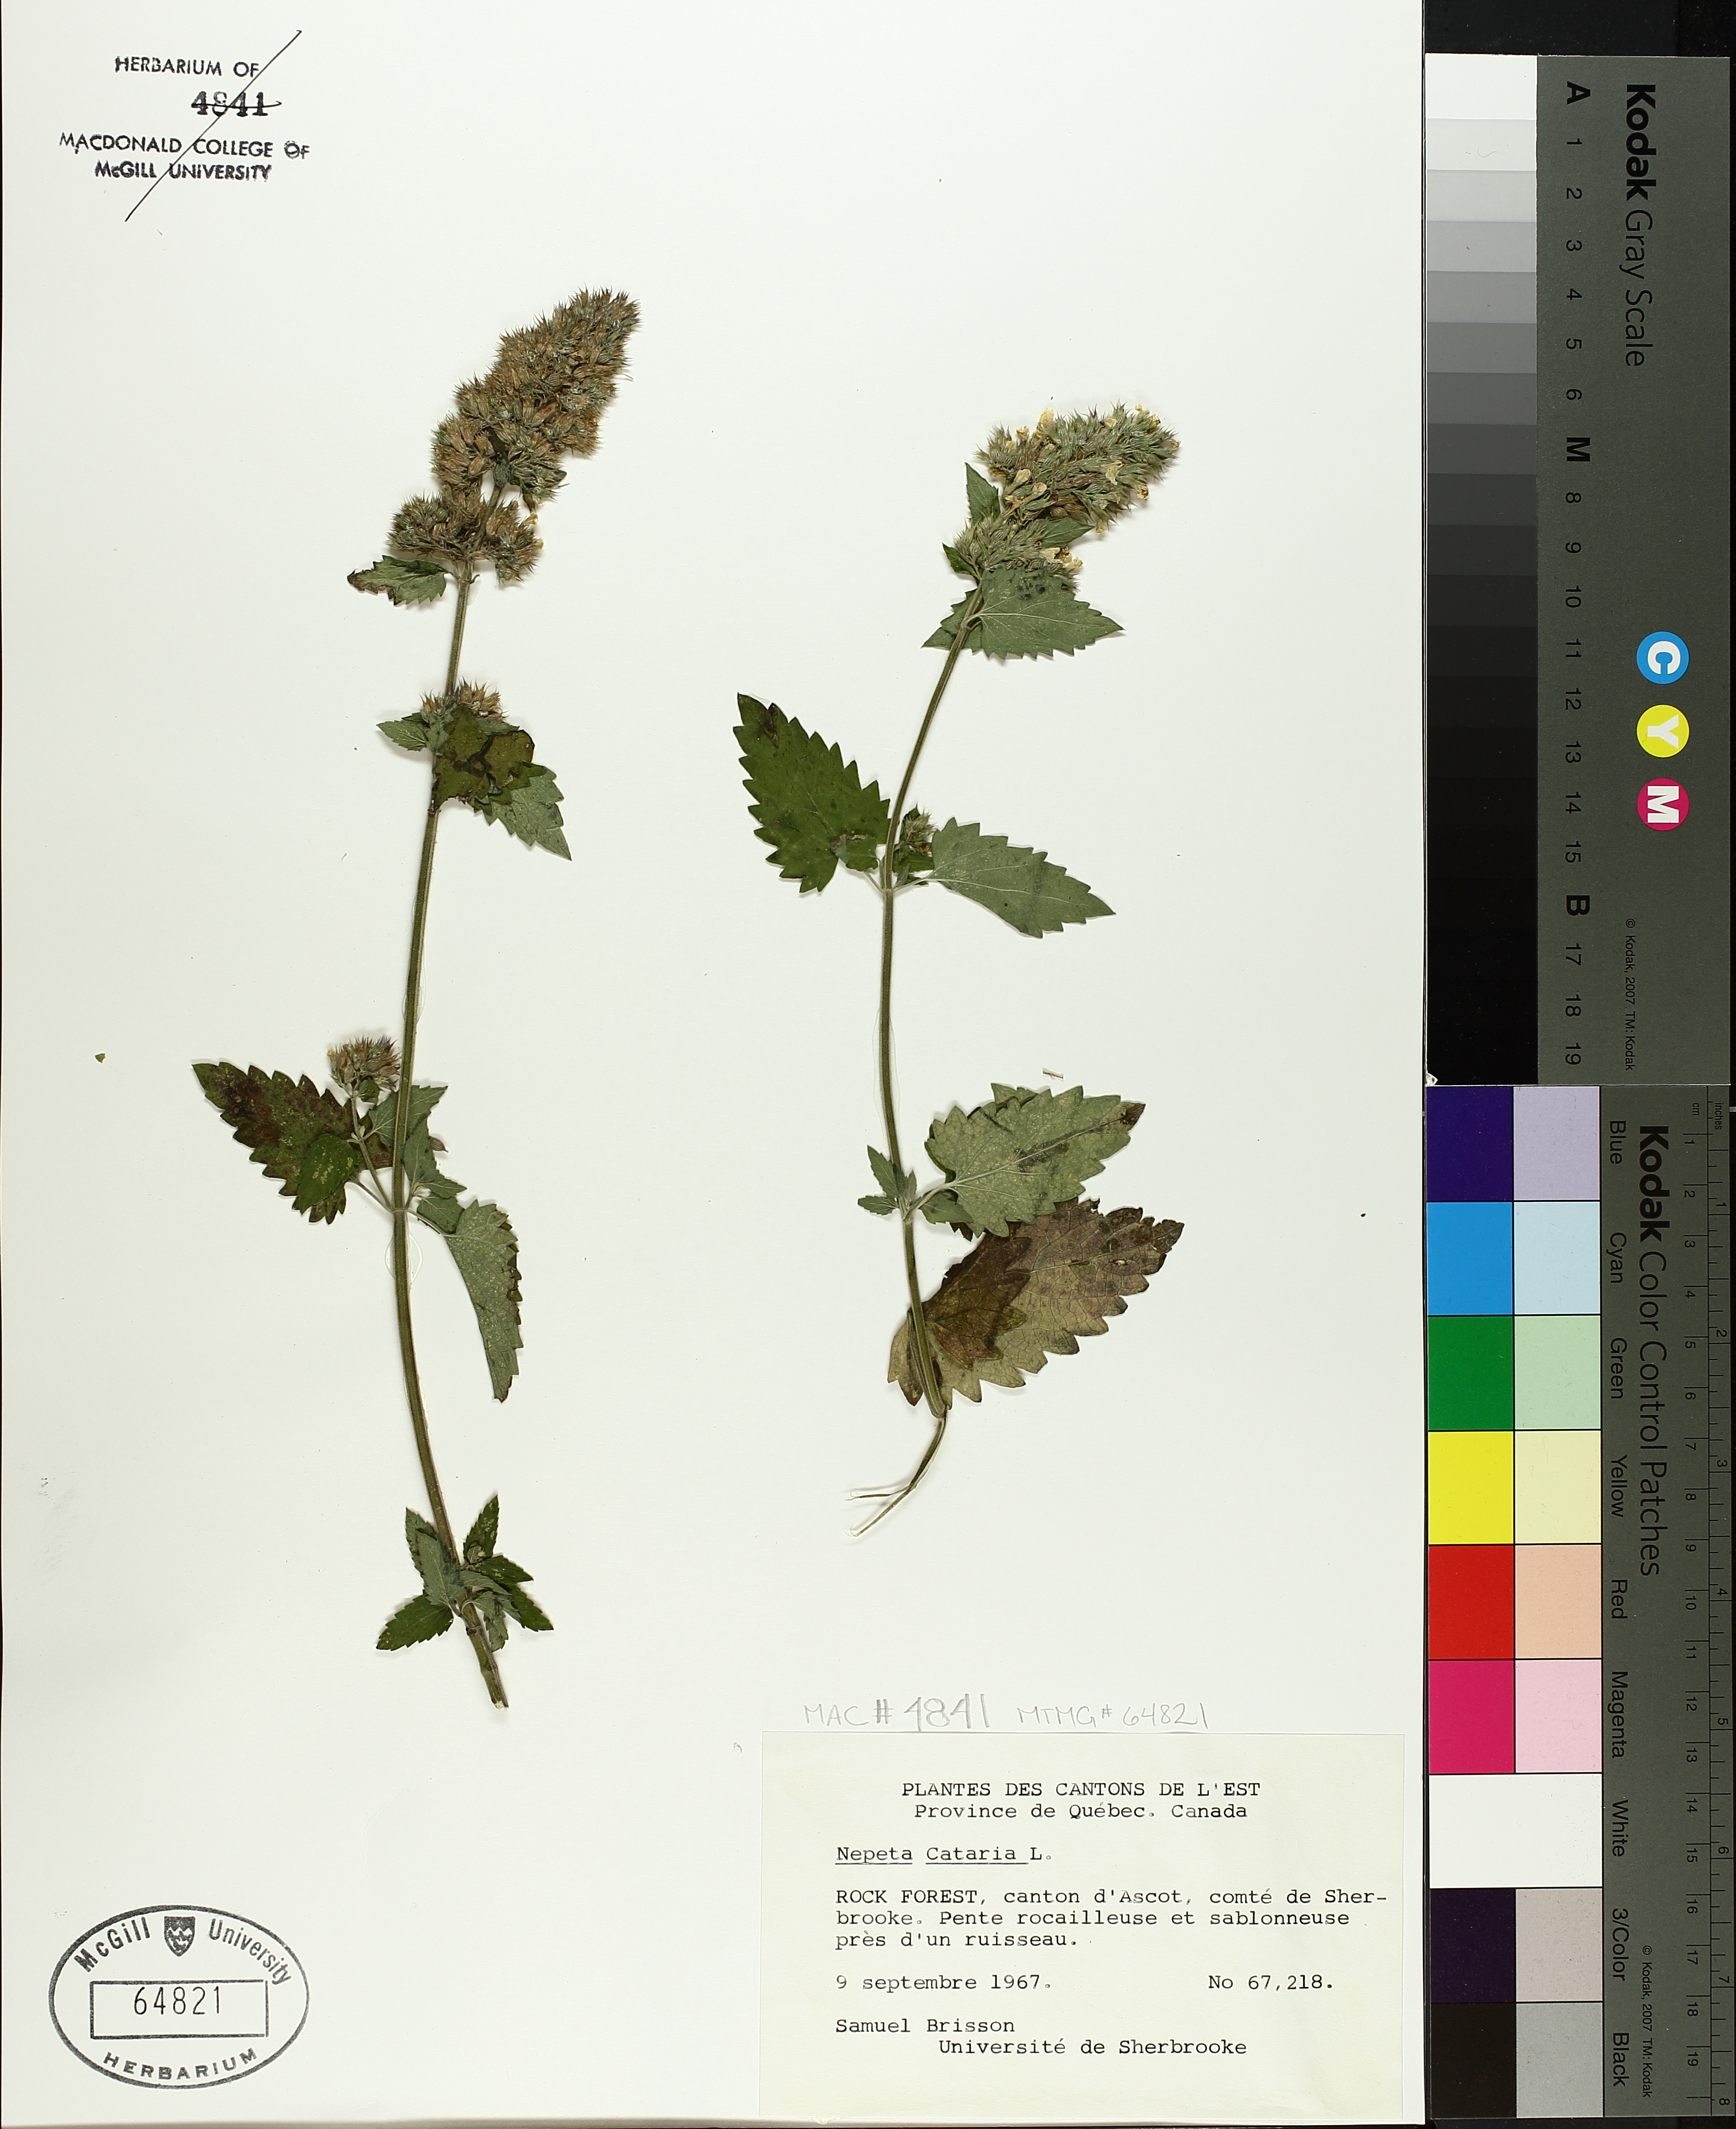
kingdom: Plantae
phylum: Tracheophyta
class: Magnoliopsida
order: Lamiales
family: Lamiaceae
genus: Nepeta
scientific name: Nepeta cataria
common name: Catnip
